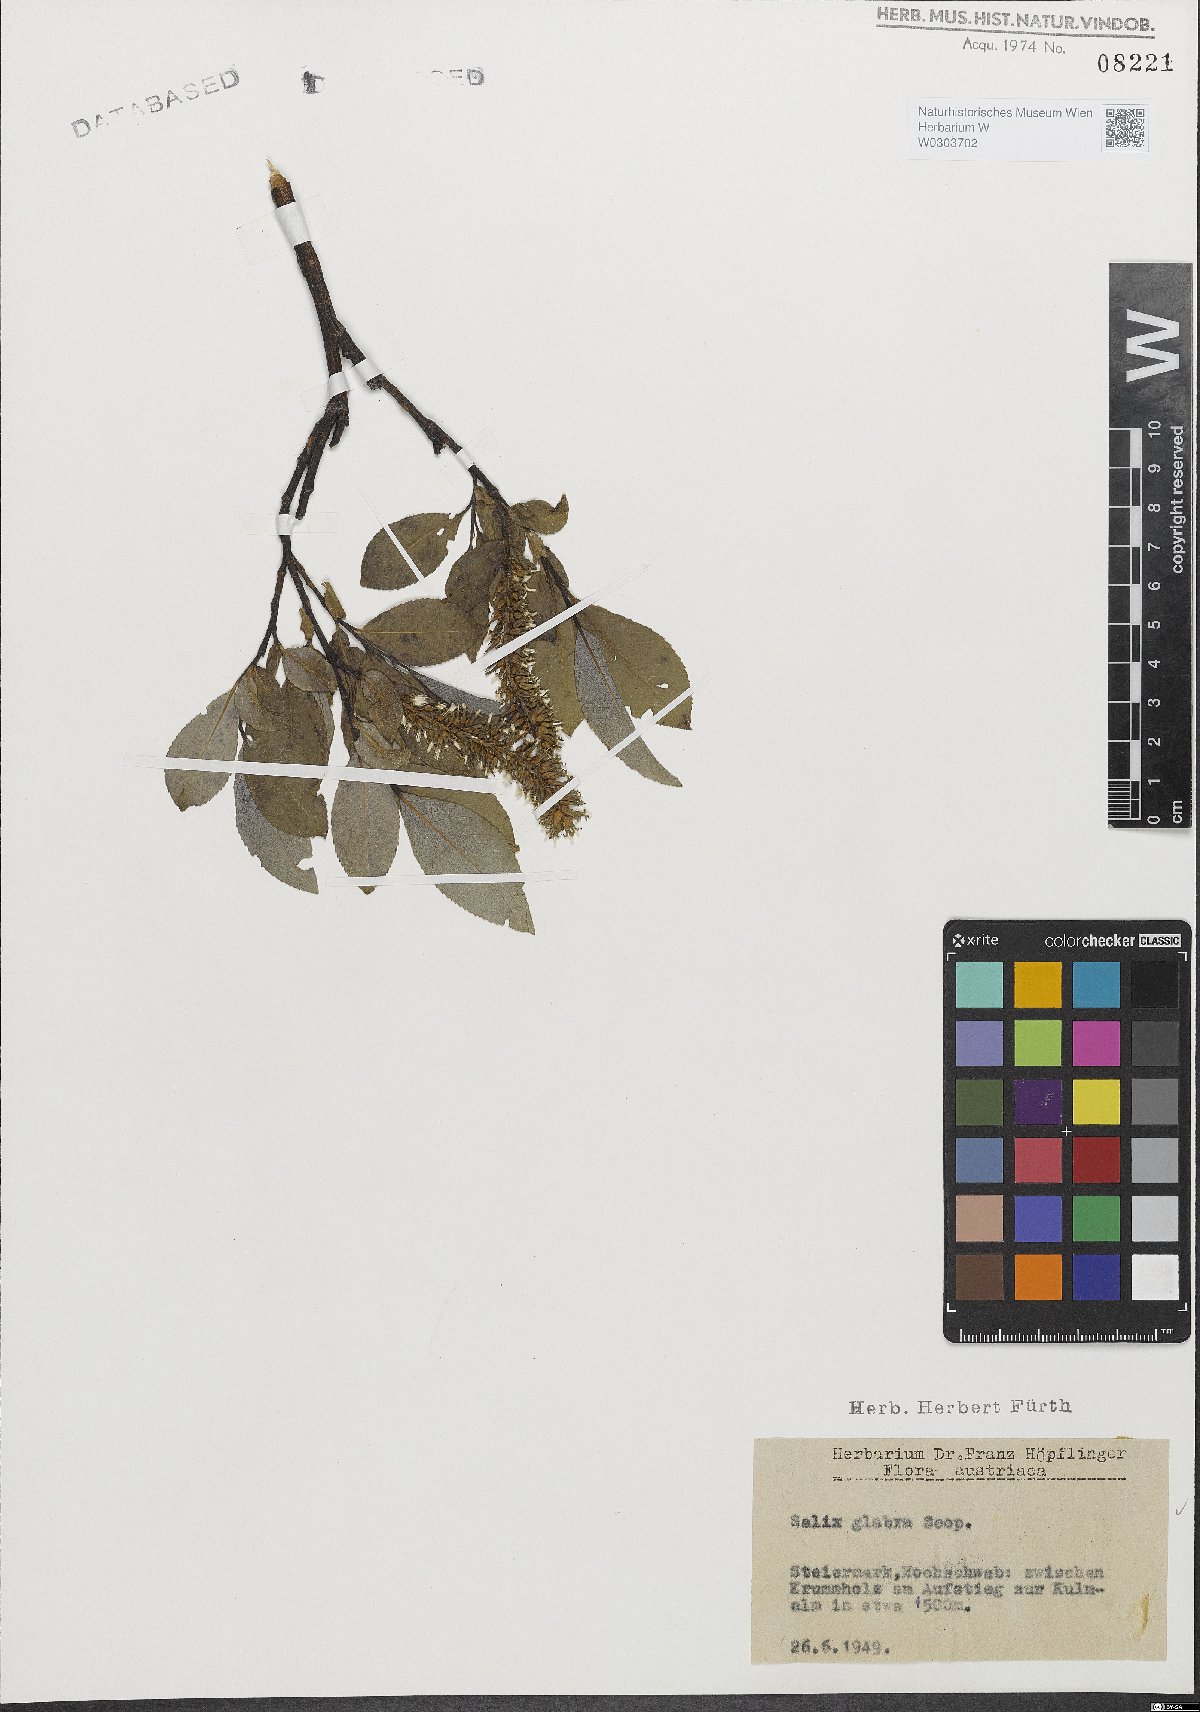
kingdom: Plantae
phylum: Tracheophyta
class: Magnoliopsida
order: Malpighiales
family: Salicaceae
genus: Salix
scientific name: Salix glabra
